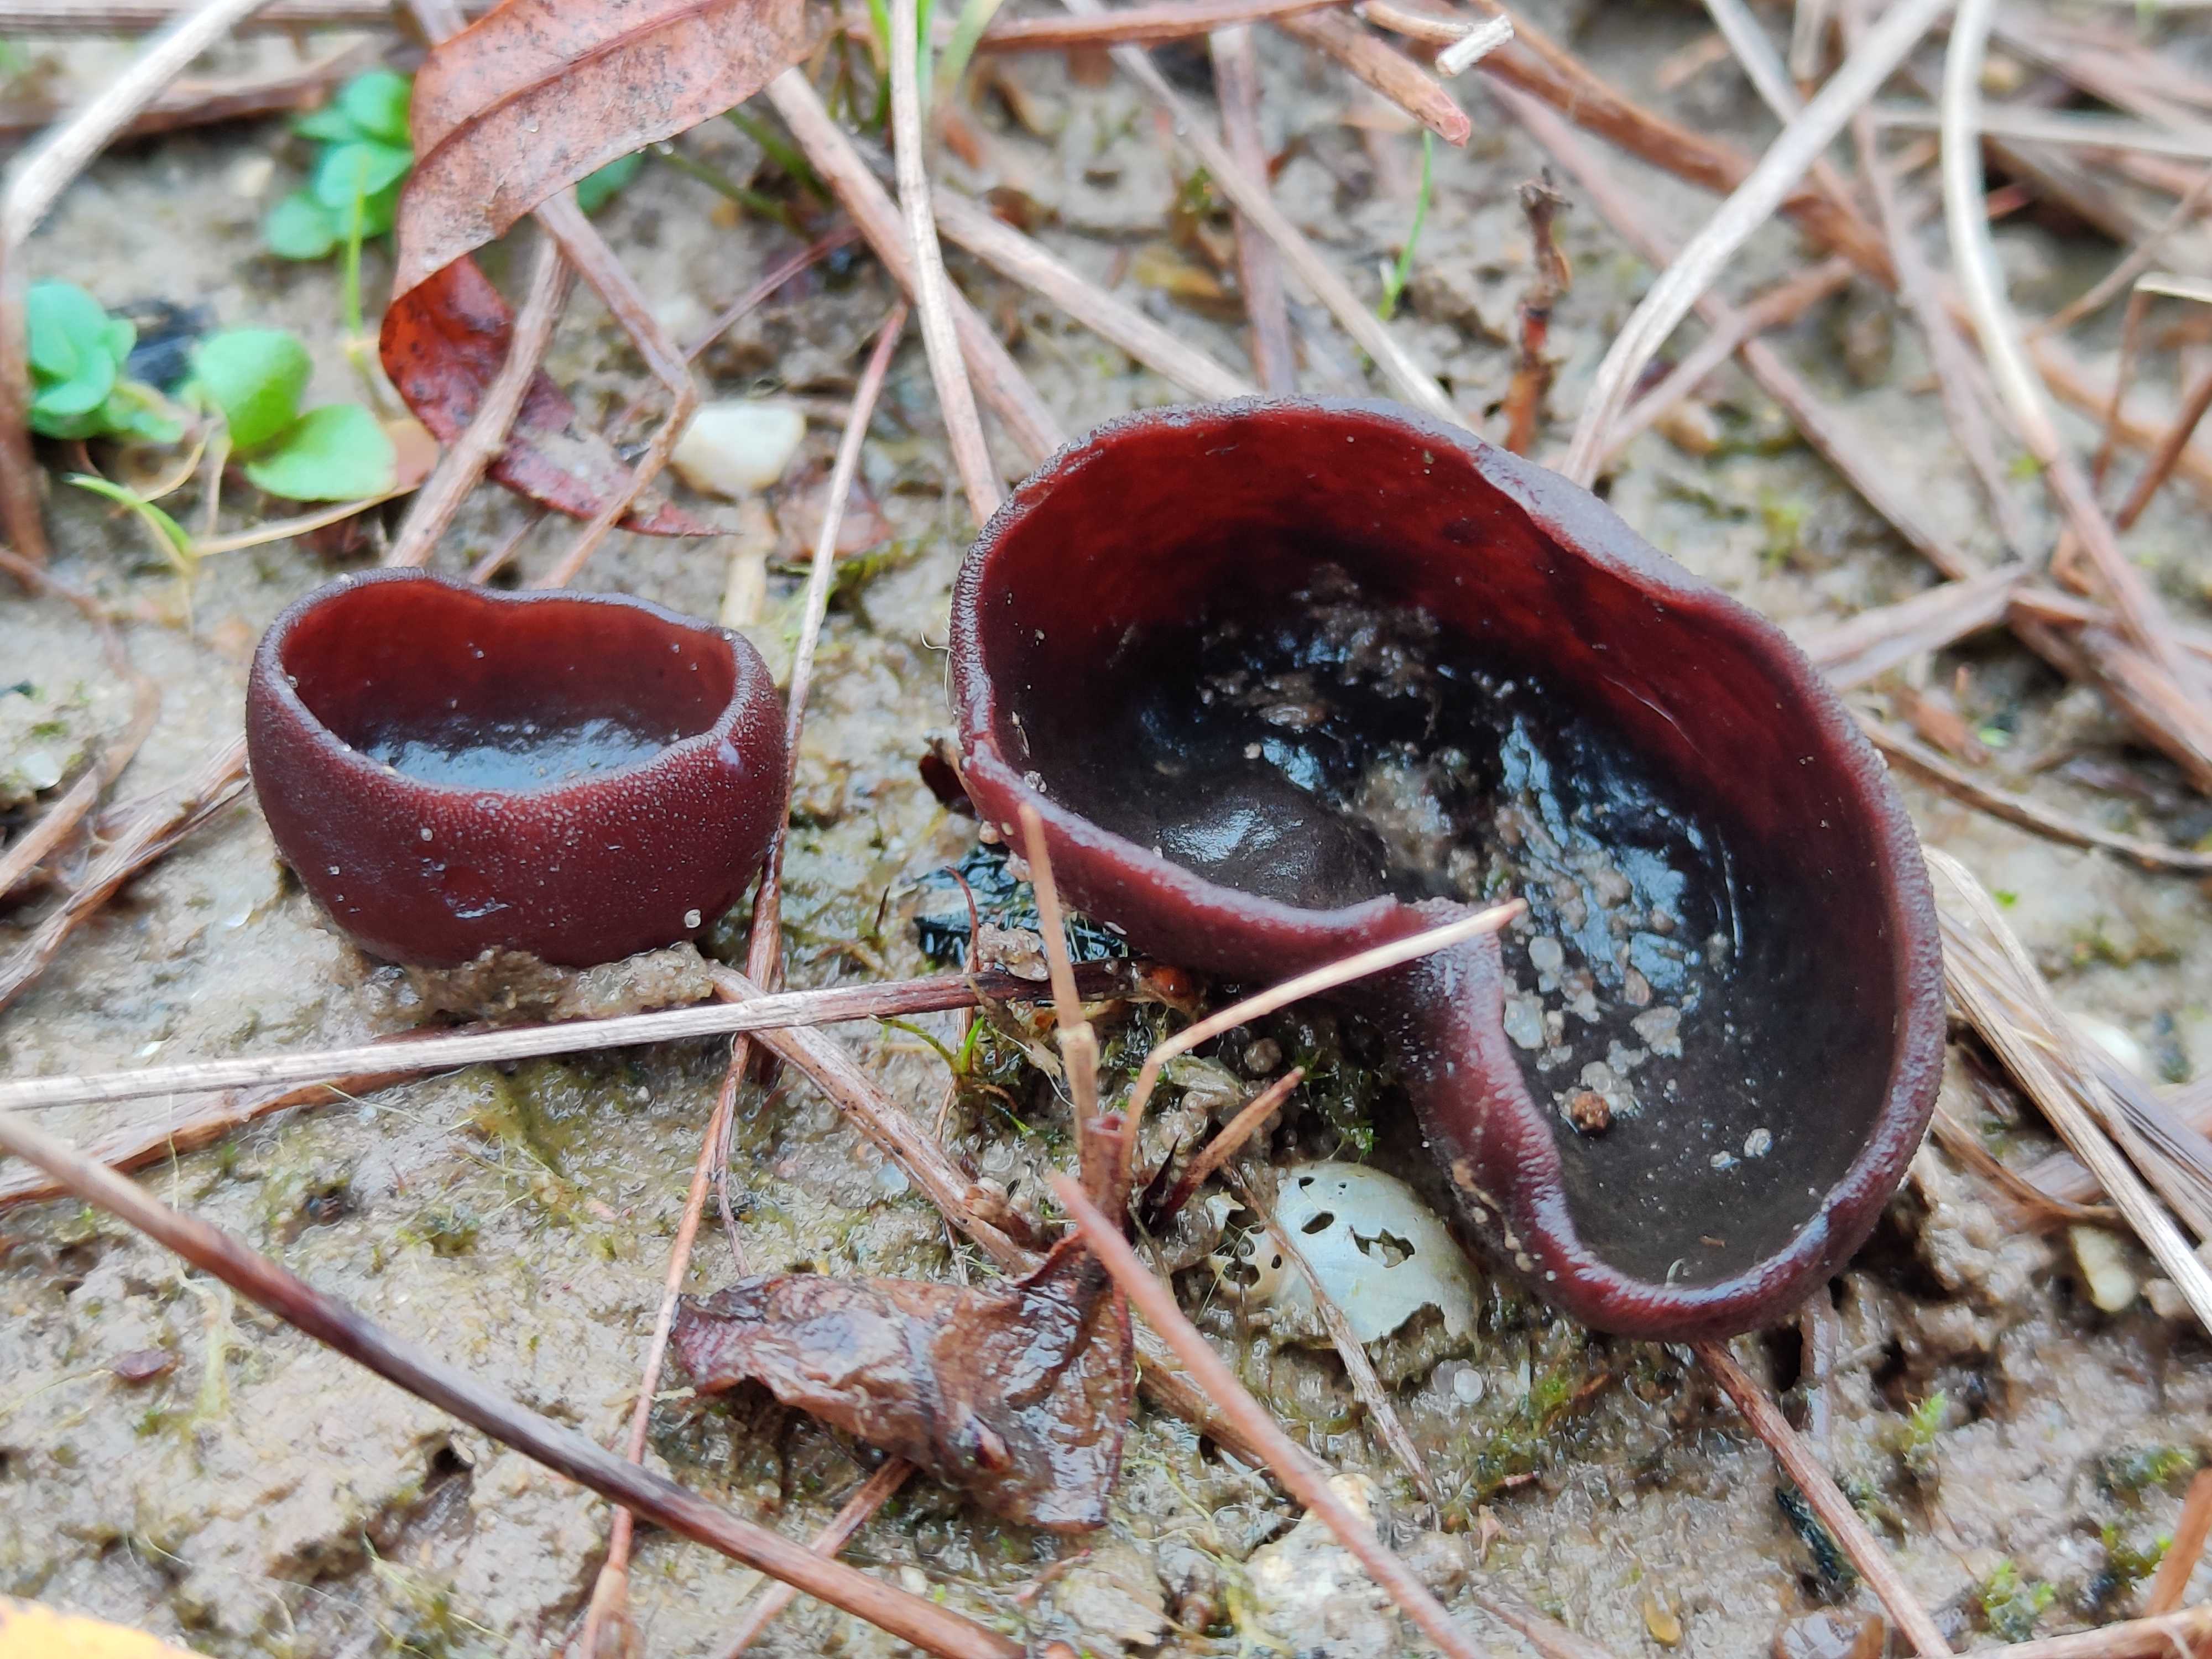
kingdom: Fungi
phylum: Ascomycota
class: Pezizomycetes
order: Pezizales
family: Pezizaceae
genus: Legaliana
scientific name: Legaliana
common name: bægersvamp
